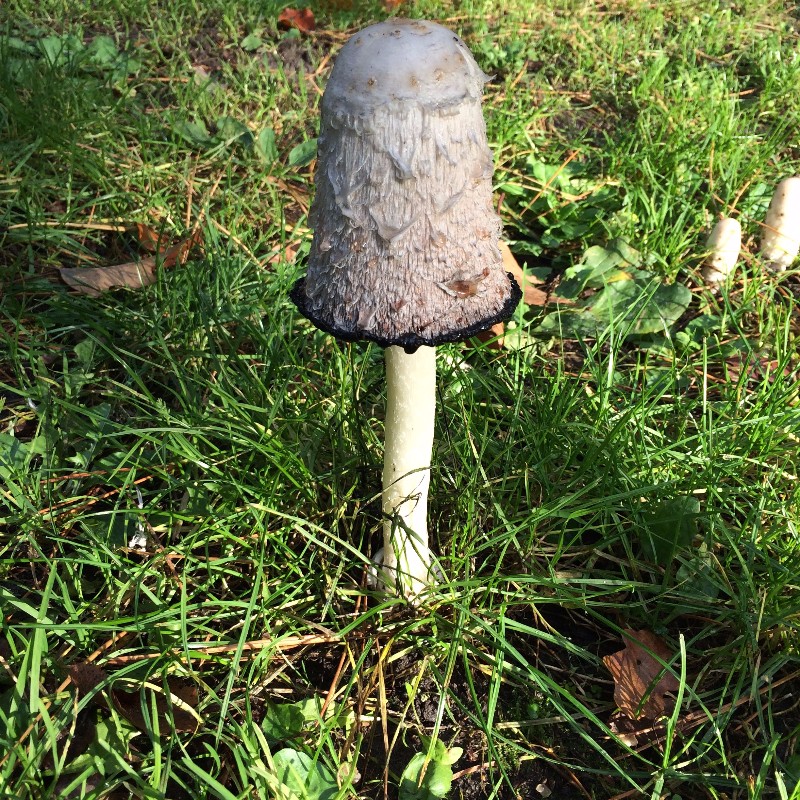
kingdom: Fungi
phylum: Basidiomycota
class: Agaricomycetes
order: Agaricales
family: Agaricaceae
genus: Coprinus
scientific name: Coprinus comatus
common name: stor parykhat
